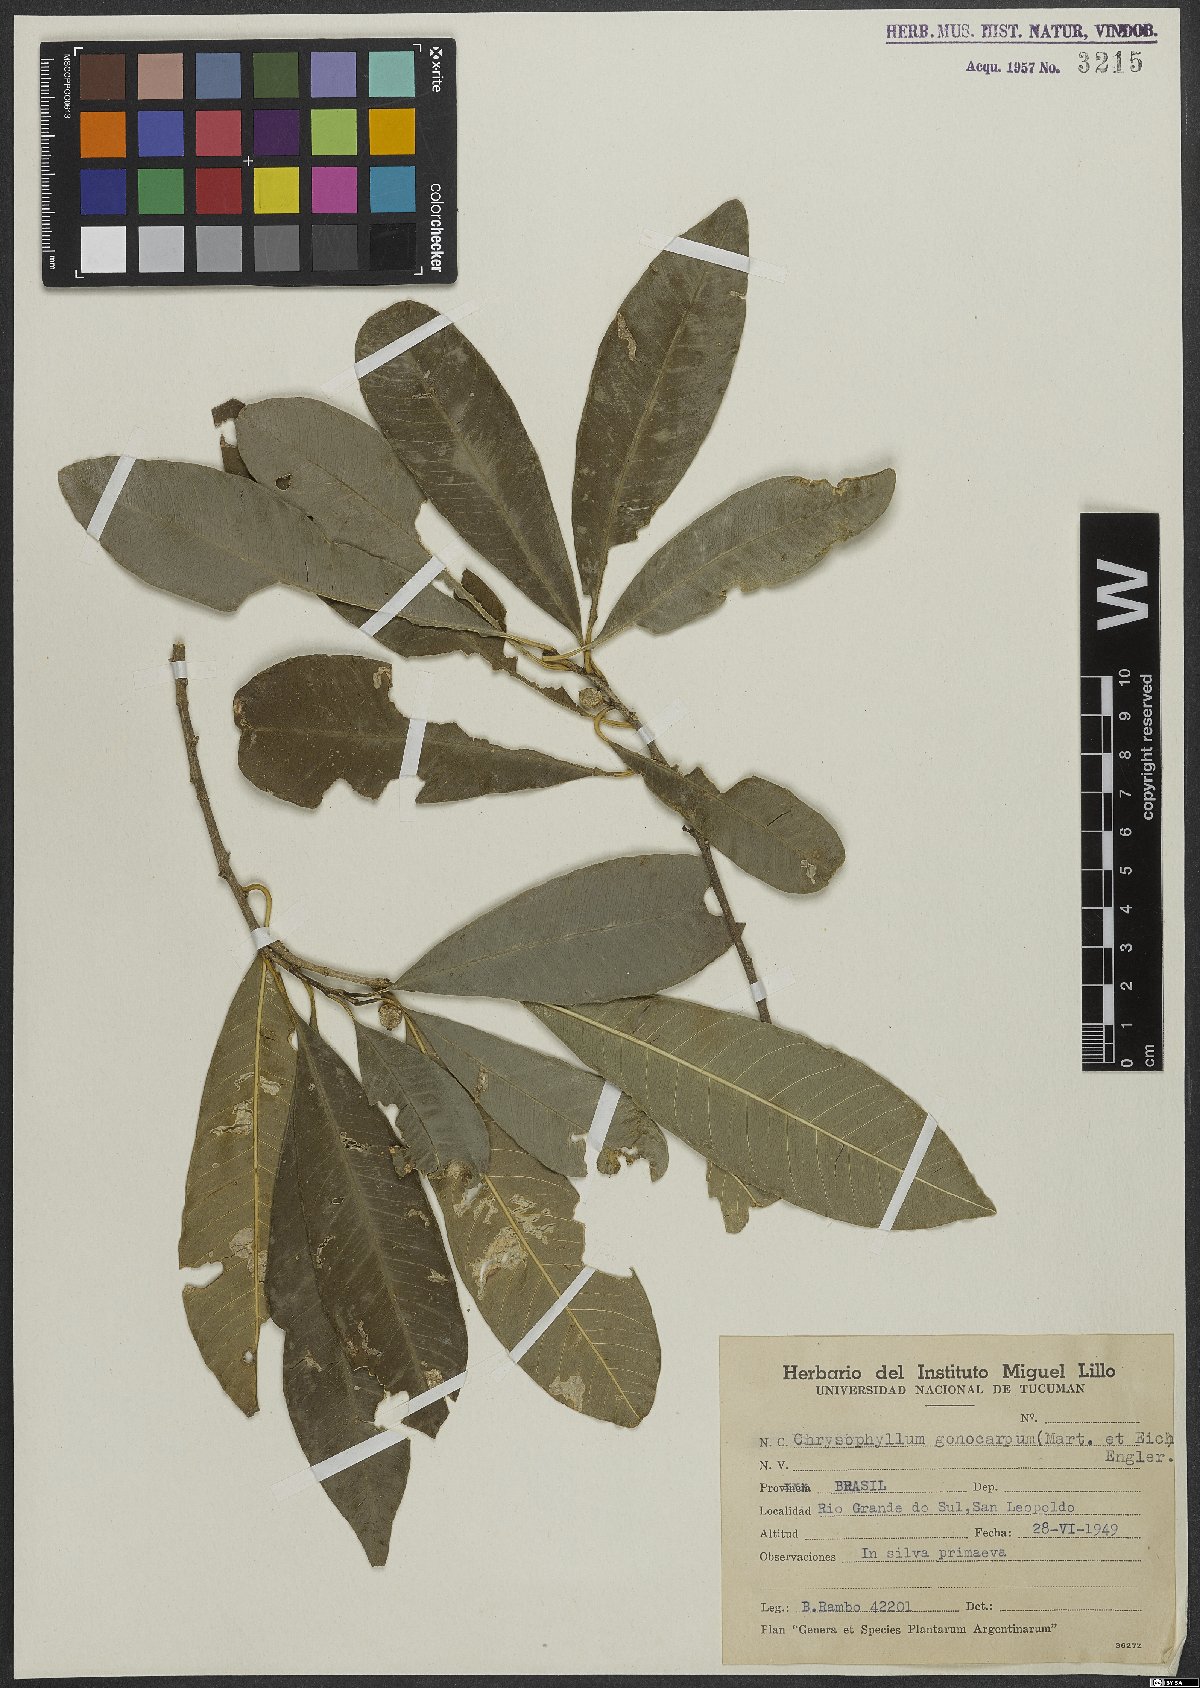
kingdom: Plantae
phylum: Tracheophyta
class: Magnoliopsida
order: Ericales
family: Sapotaceae
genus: Chrysophyllum
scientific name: Chrysophyllum gonocarpum
